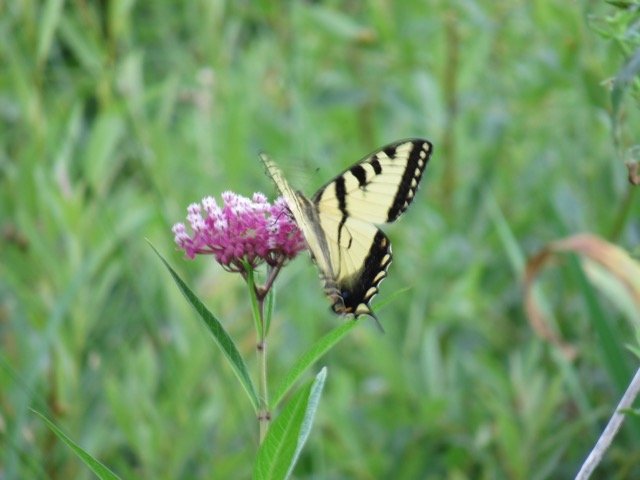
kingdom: Animalia
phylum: Arthropoda
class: Insecta
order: Lepidoptera
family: Papilionidae
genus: Pterourus
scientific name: Pterourus
